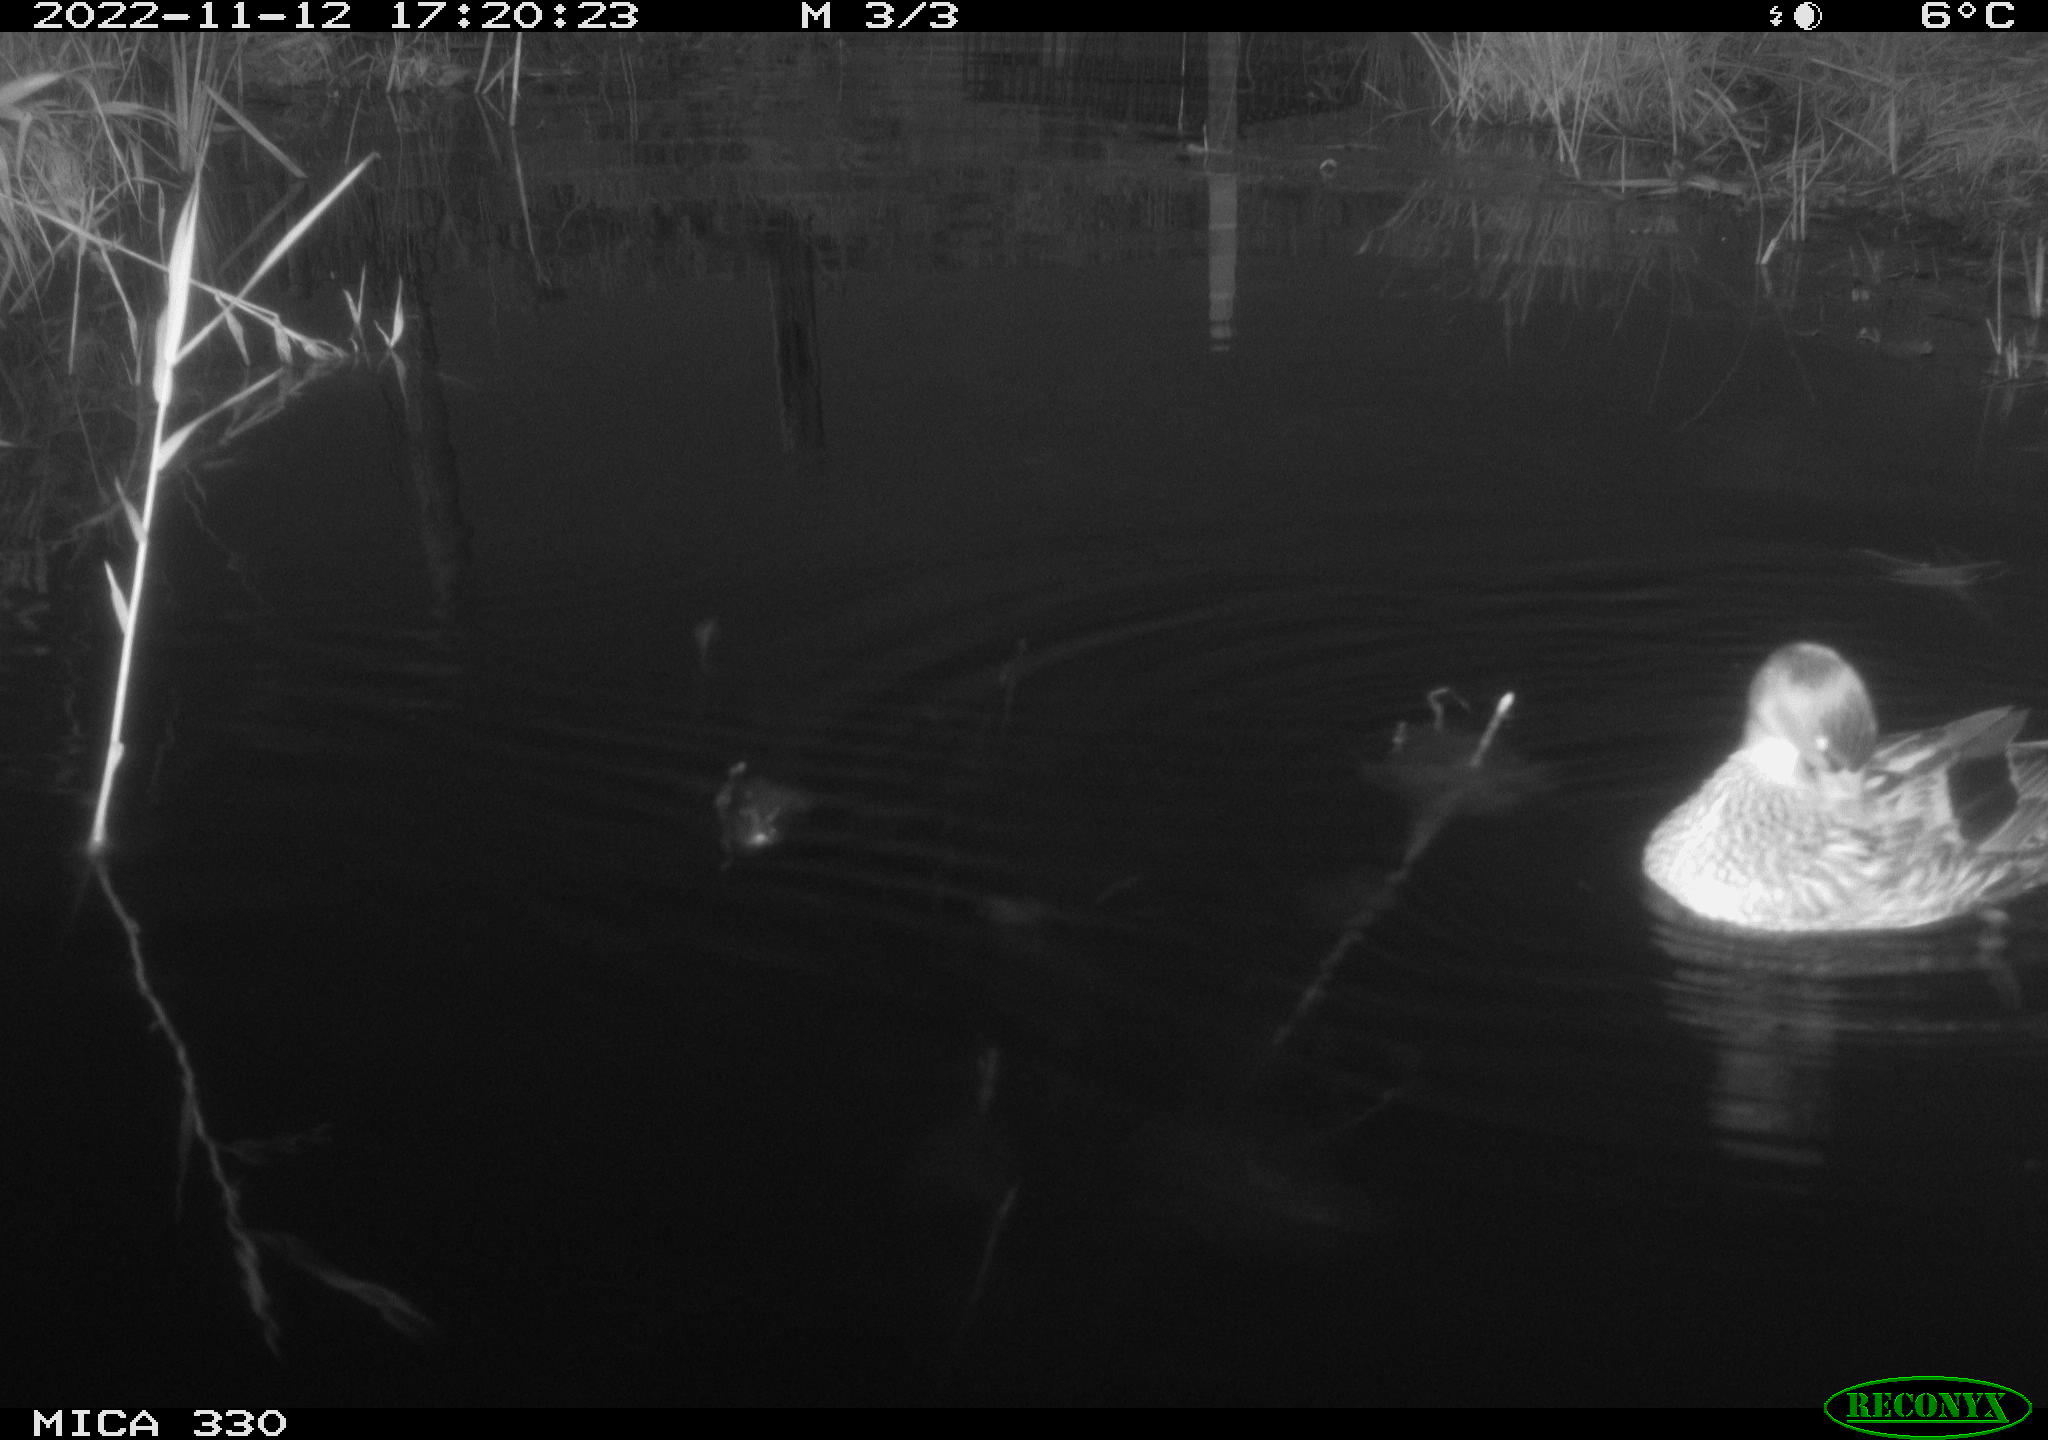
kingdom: Animalia
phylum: Chordata
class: Aves
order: Anseriformes
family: Anatidae
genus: Anas
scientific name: Anas
